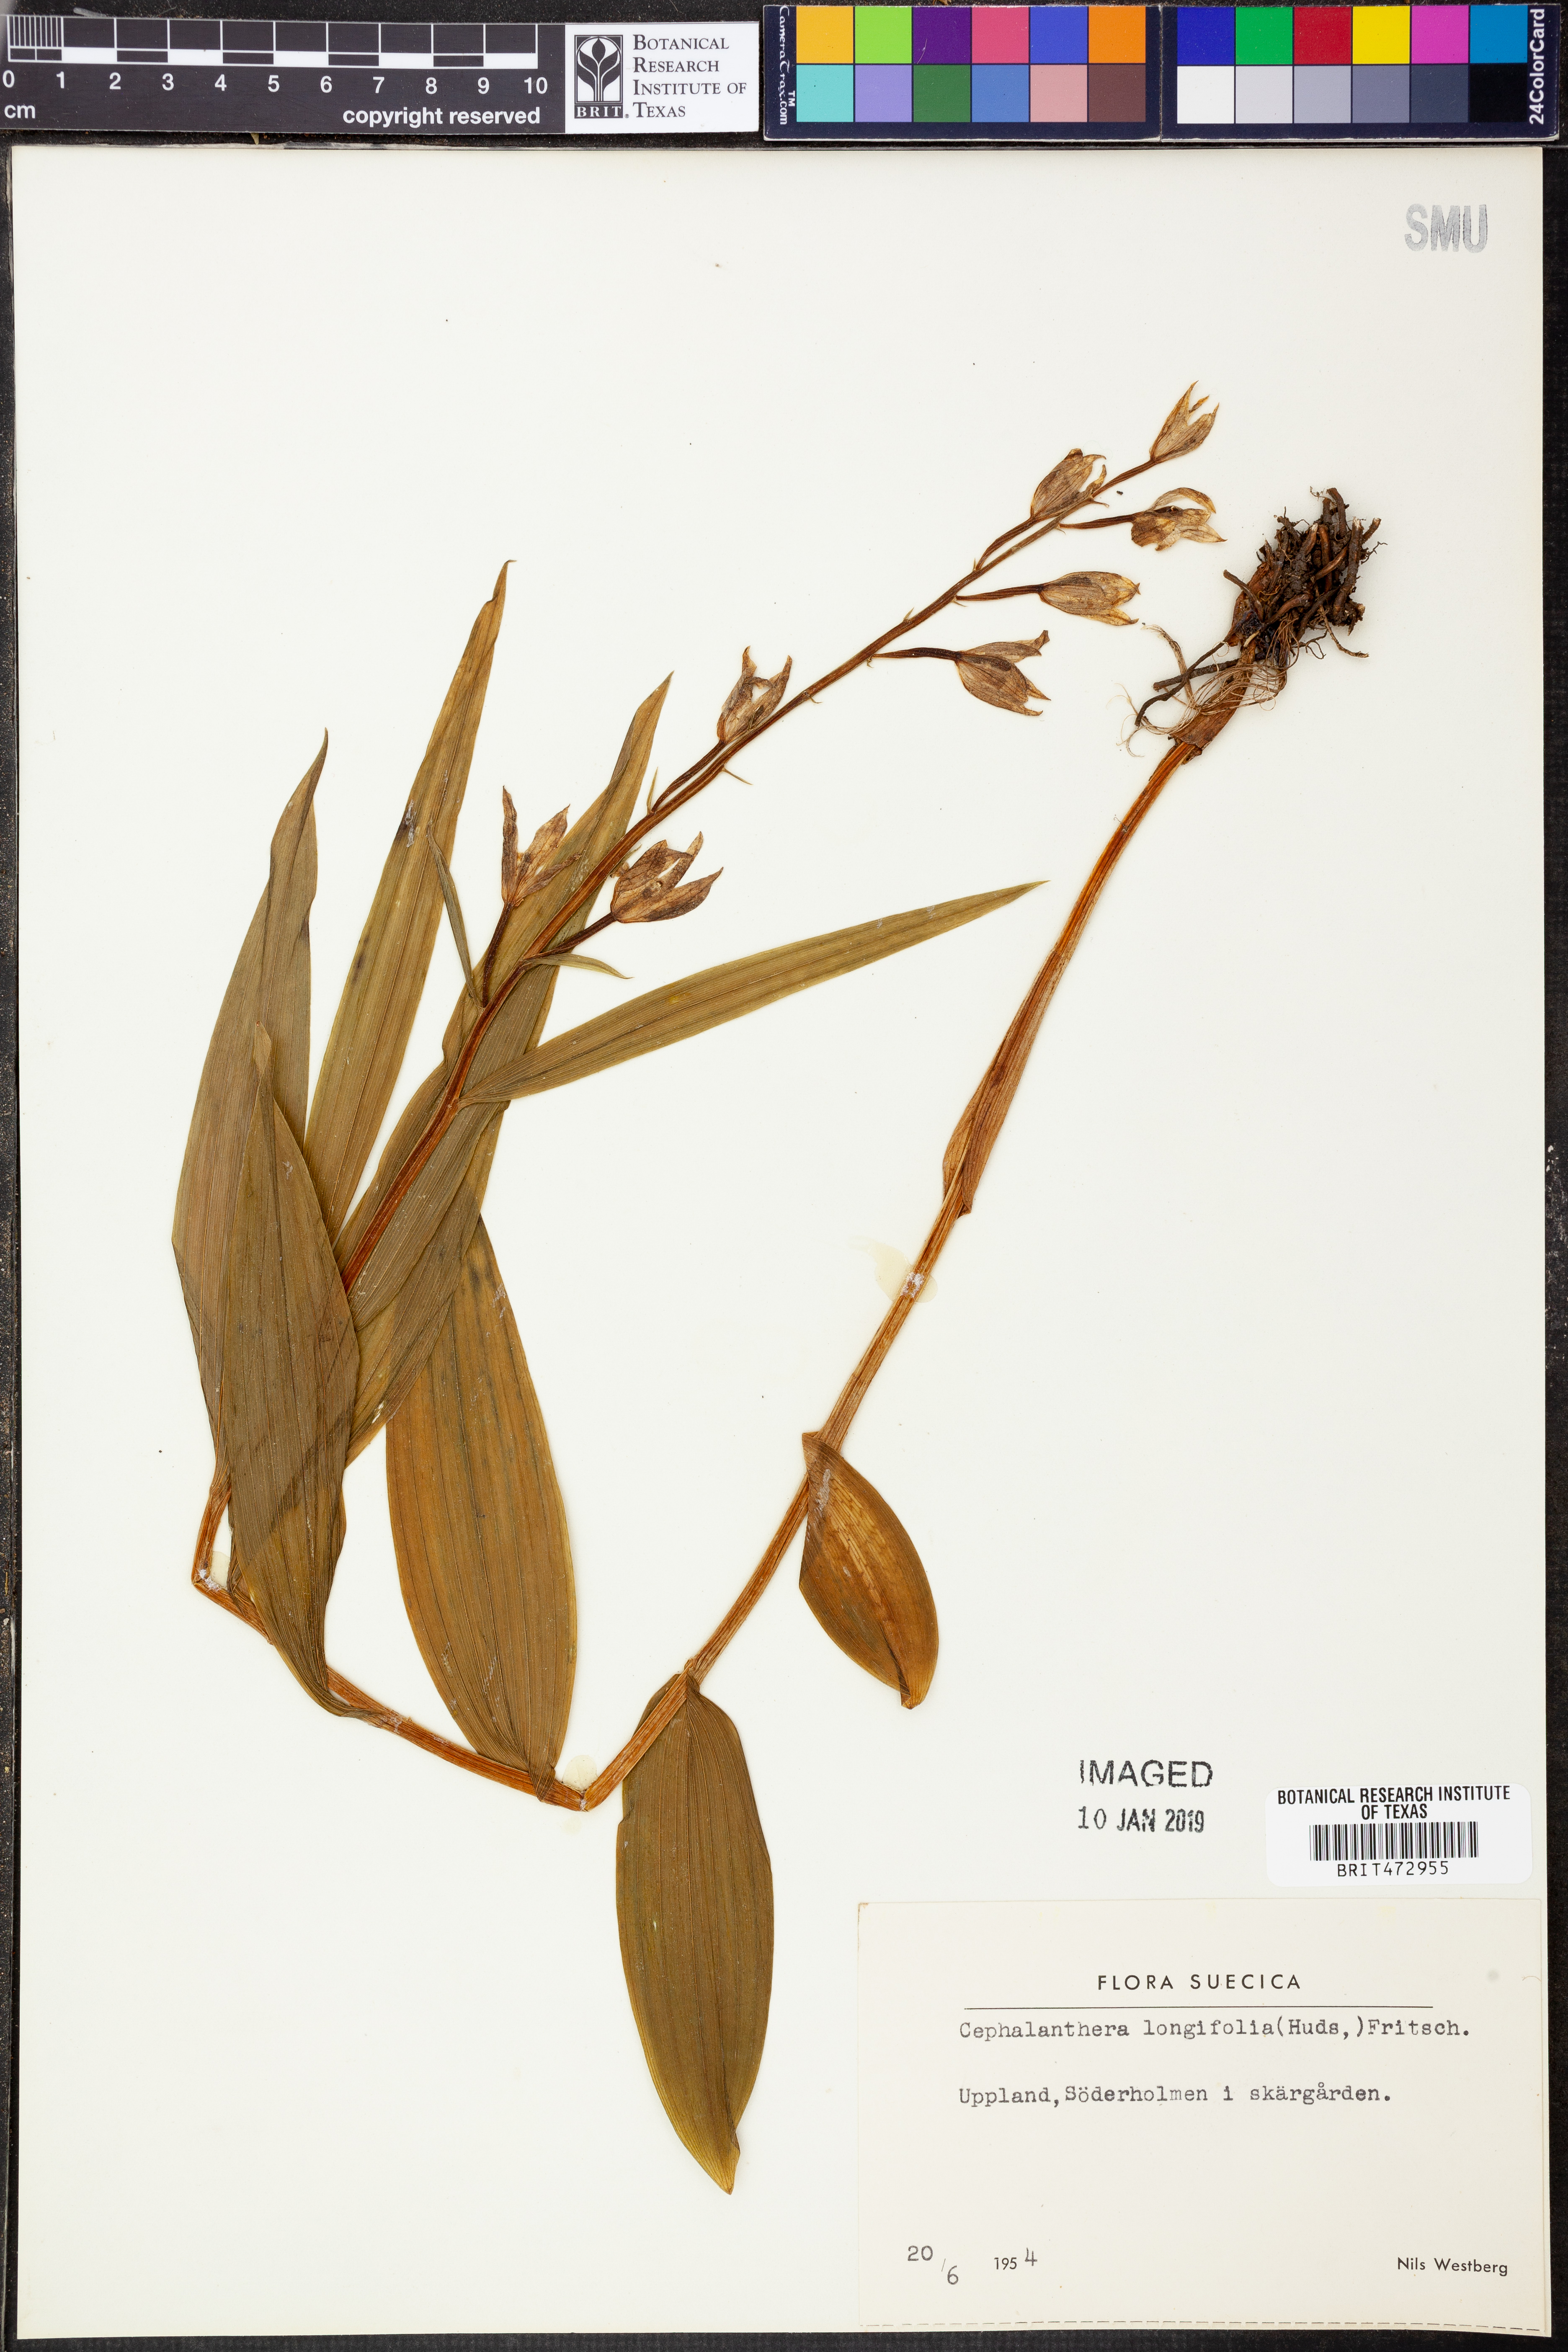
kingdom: Plantae
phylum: Tracheophyta
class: Liliopsida
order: Asparagales
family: Orchidaceae
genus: Cephalanthera
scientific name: Cephalanthera longifolia
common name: Narrow-leaved helleborine
